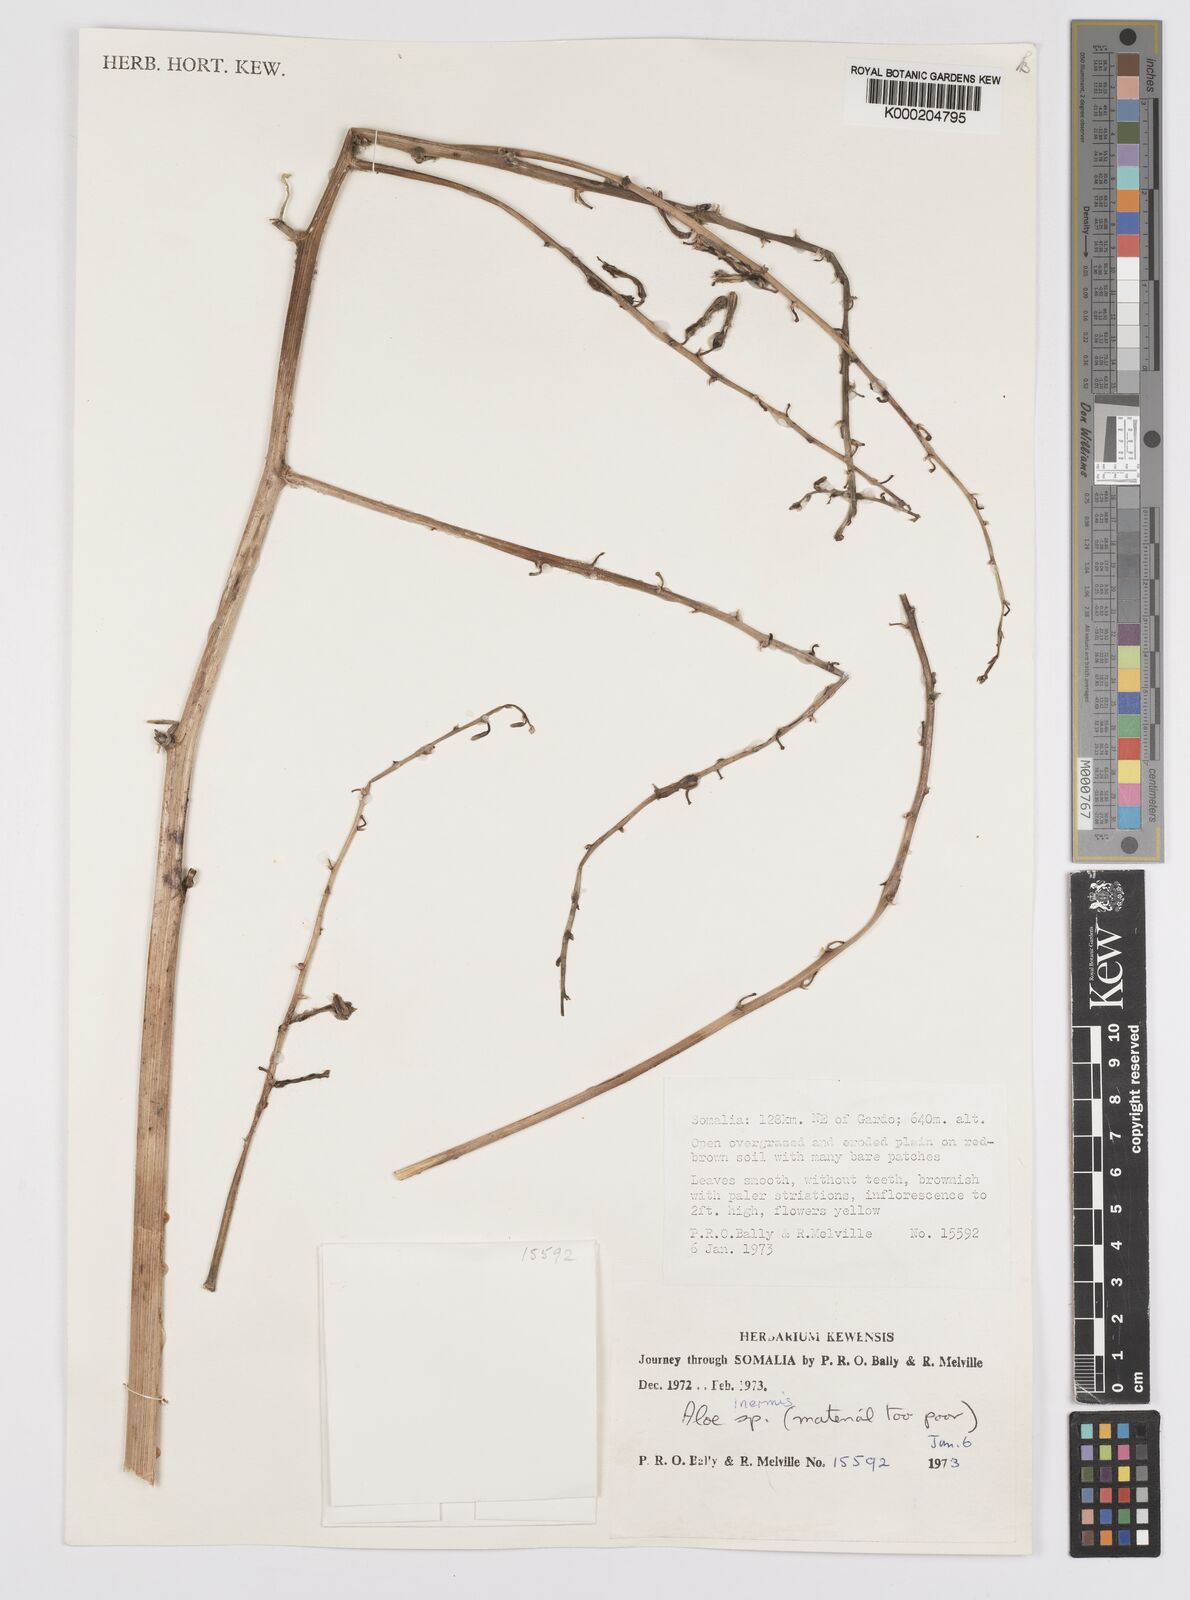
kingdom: Plantae
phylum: Tracheophyta
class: Liliopsida
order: Asparagales
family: Asphodelaceae
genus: Aloe
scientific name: Aloe brunneostriata
